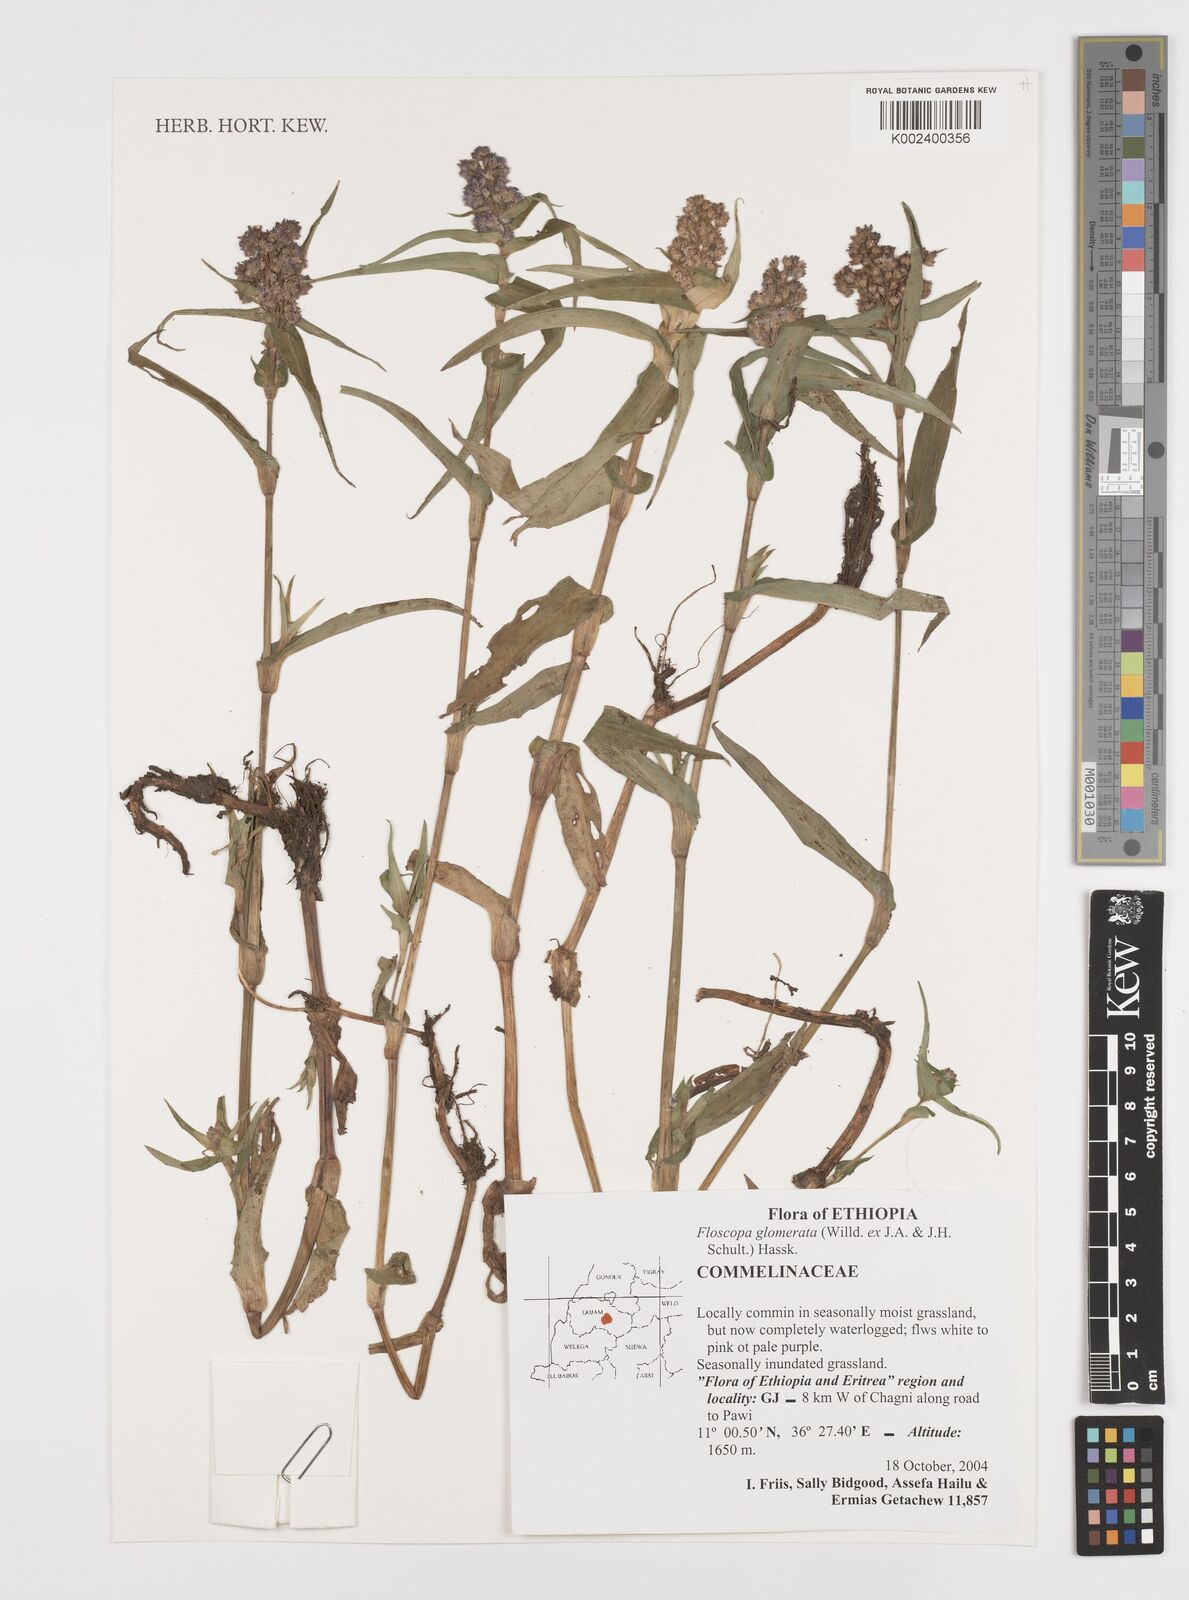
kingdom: Plantae
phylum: Tracheophyta
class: Liliopsida
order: Commelinales
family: Commelinaceae
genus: Floscopa
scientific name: Floscopa glomerata
